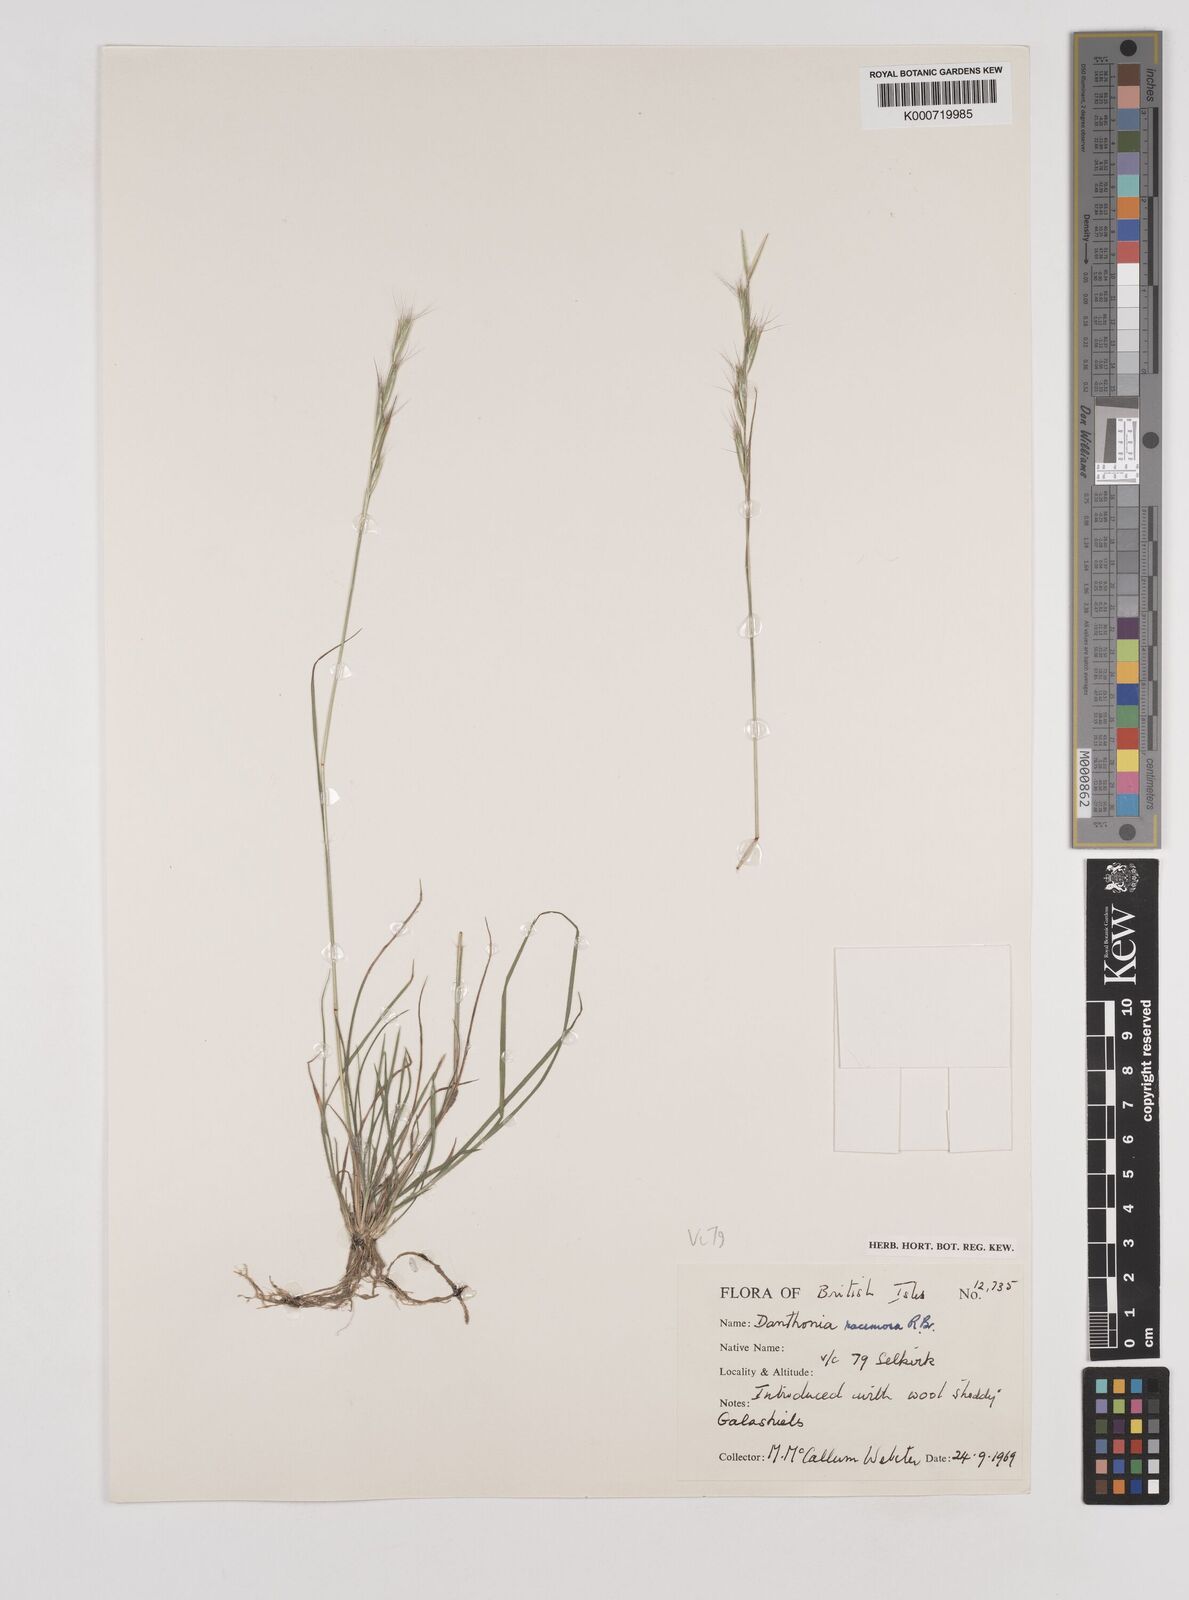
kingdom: Plantae
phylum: Tracheophyta
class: Liliopsida
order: Poales
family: Poaceae
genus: Rytidosperma
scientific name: Rytidosperma racemosum
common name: Wallaby-grass
